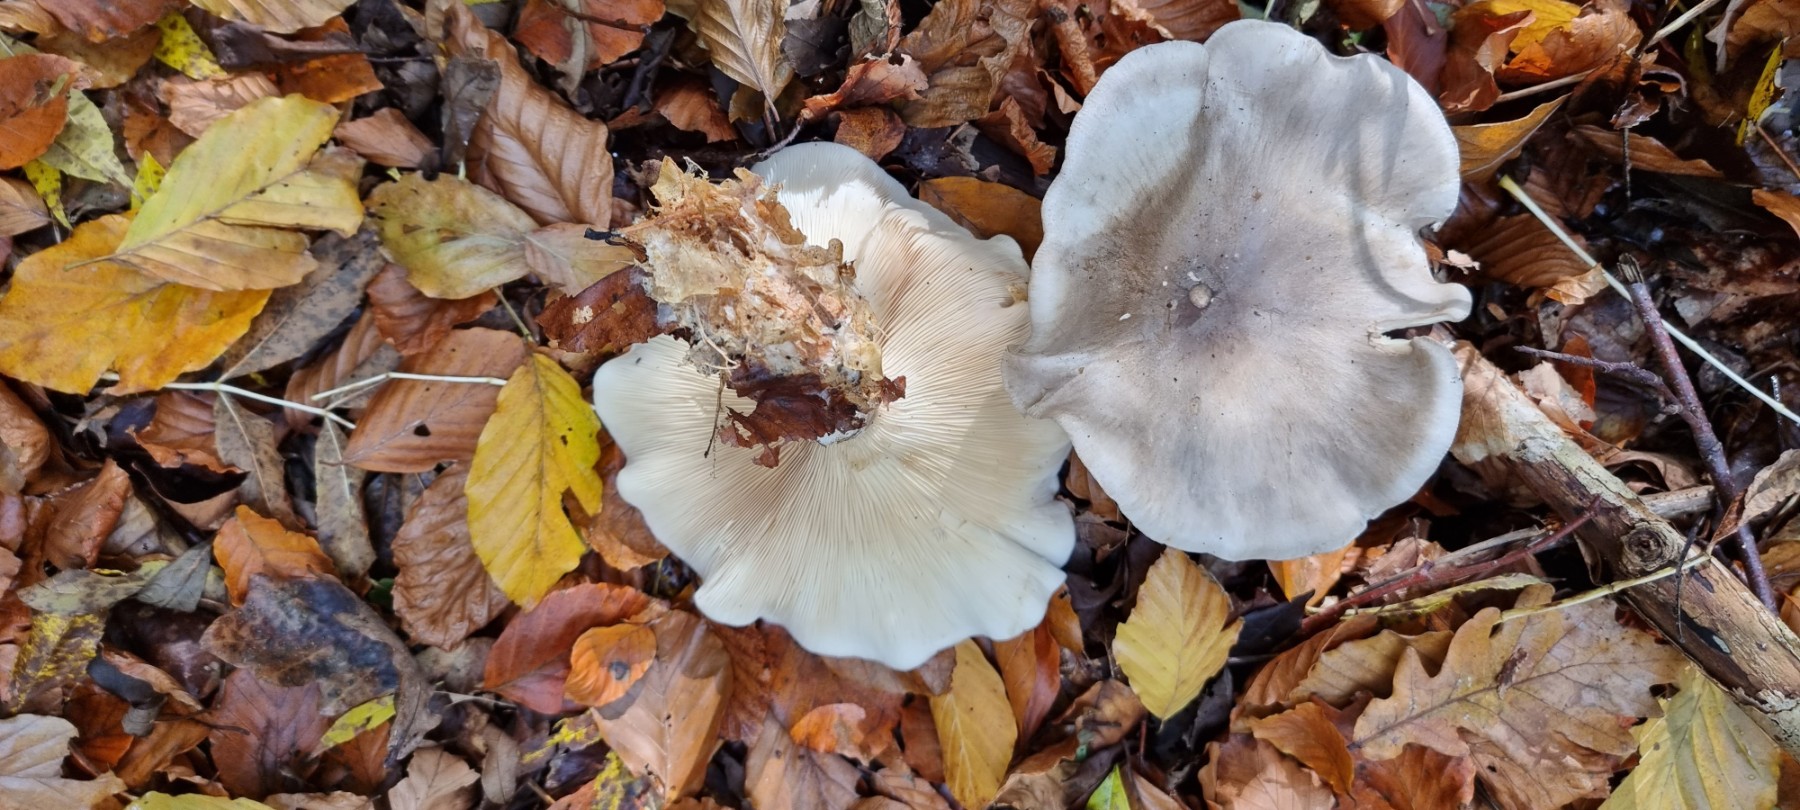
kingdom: Fungi
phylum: Basidiomycota
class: Agaricomycetes
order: Agaricales
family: Tricholomataceae
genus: Clitocybe
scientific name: Clitocybe nebularis
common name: tåge-tragthat
